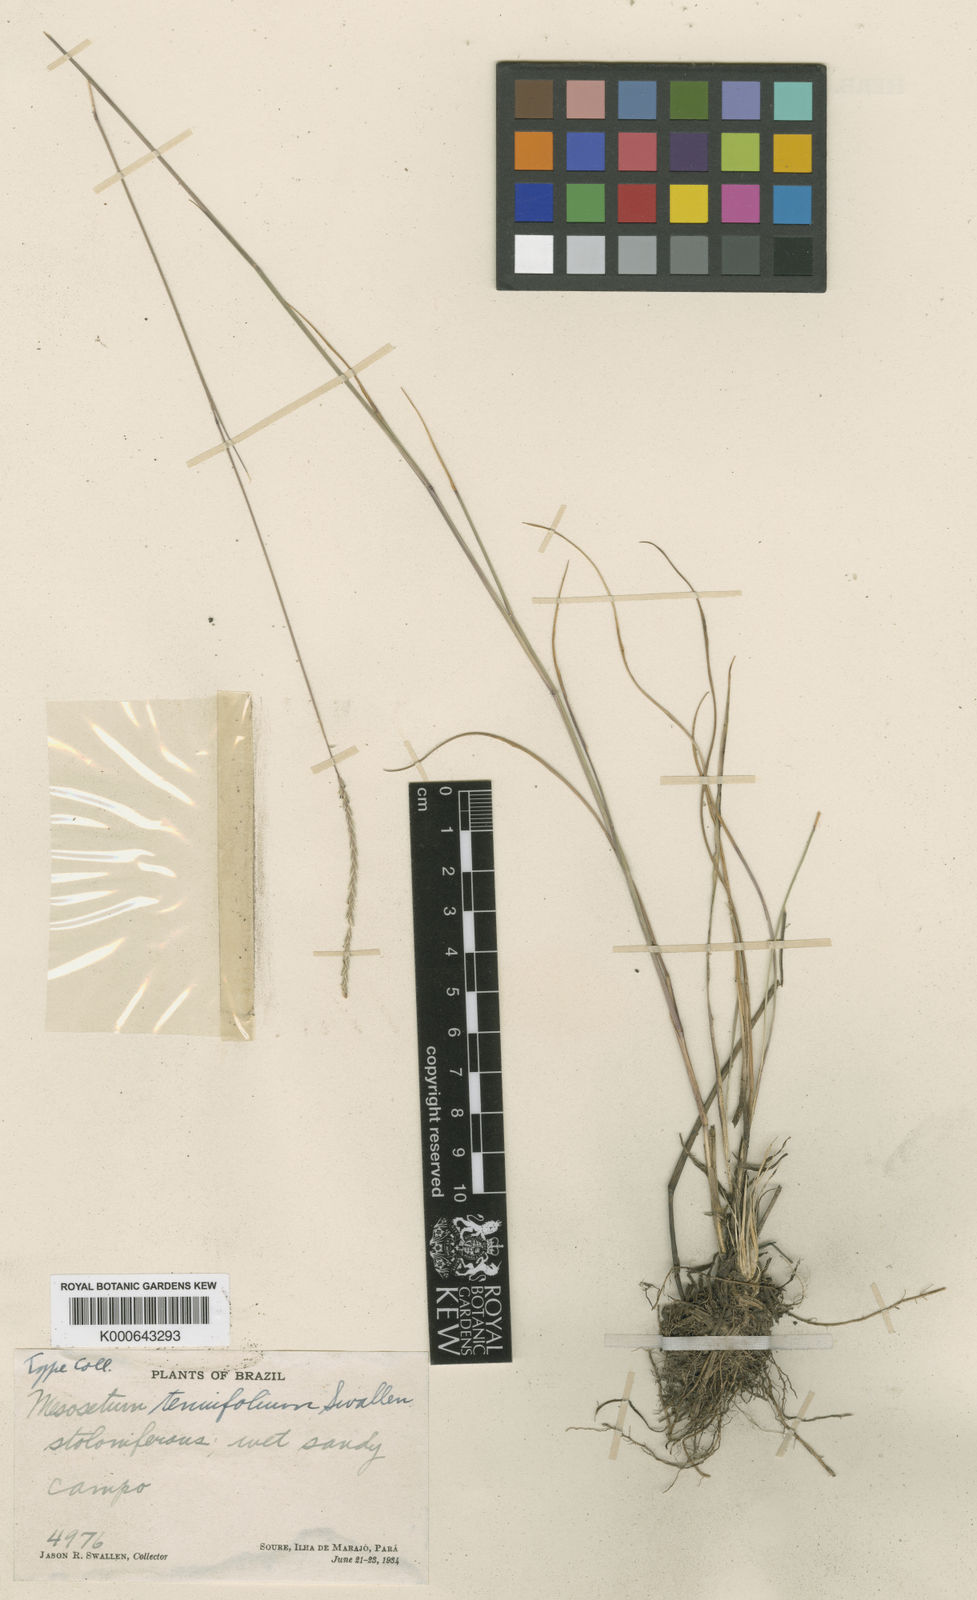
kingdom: Plantae
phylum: Tracheophyta
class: Liliopsida
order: Poales
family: Poaceae
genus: Mesosetum
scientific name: Mesosetum
